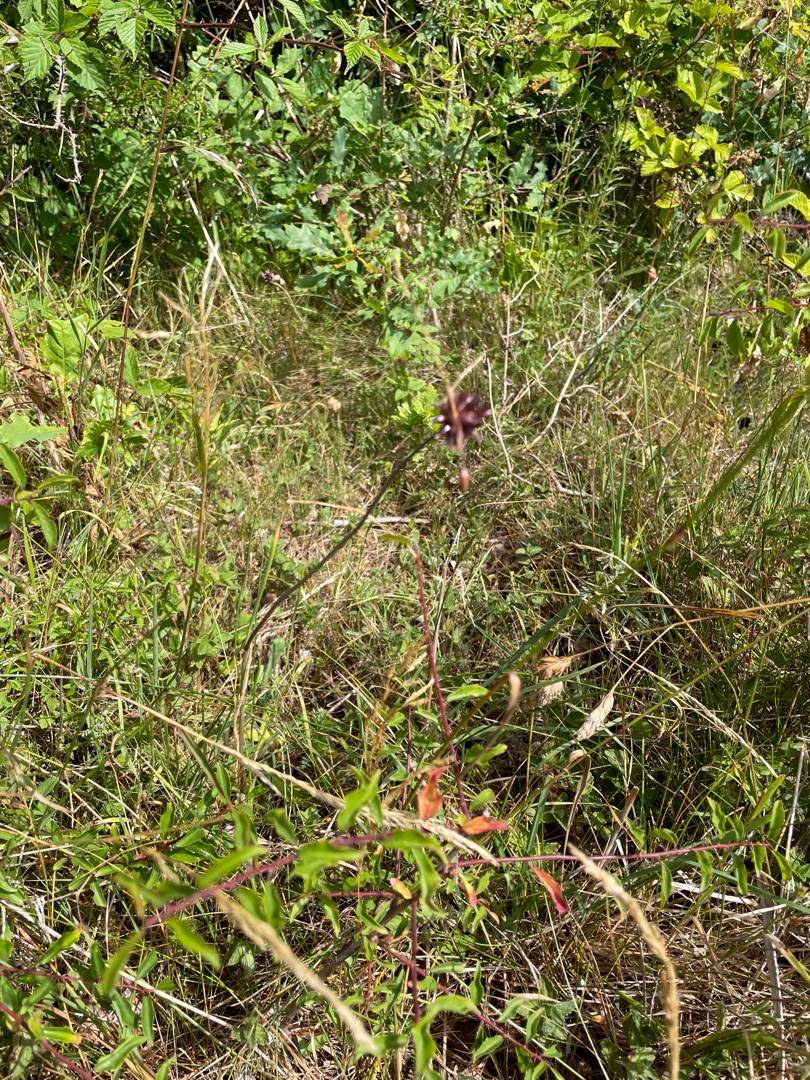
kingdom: Plantae
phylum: Tracheophyta
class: Liliopsida
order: Asparagales
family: Amaryllidaceae
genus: Allium
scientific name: Allium oleraceum
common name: Vild løg
